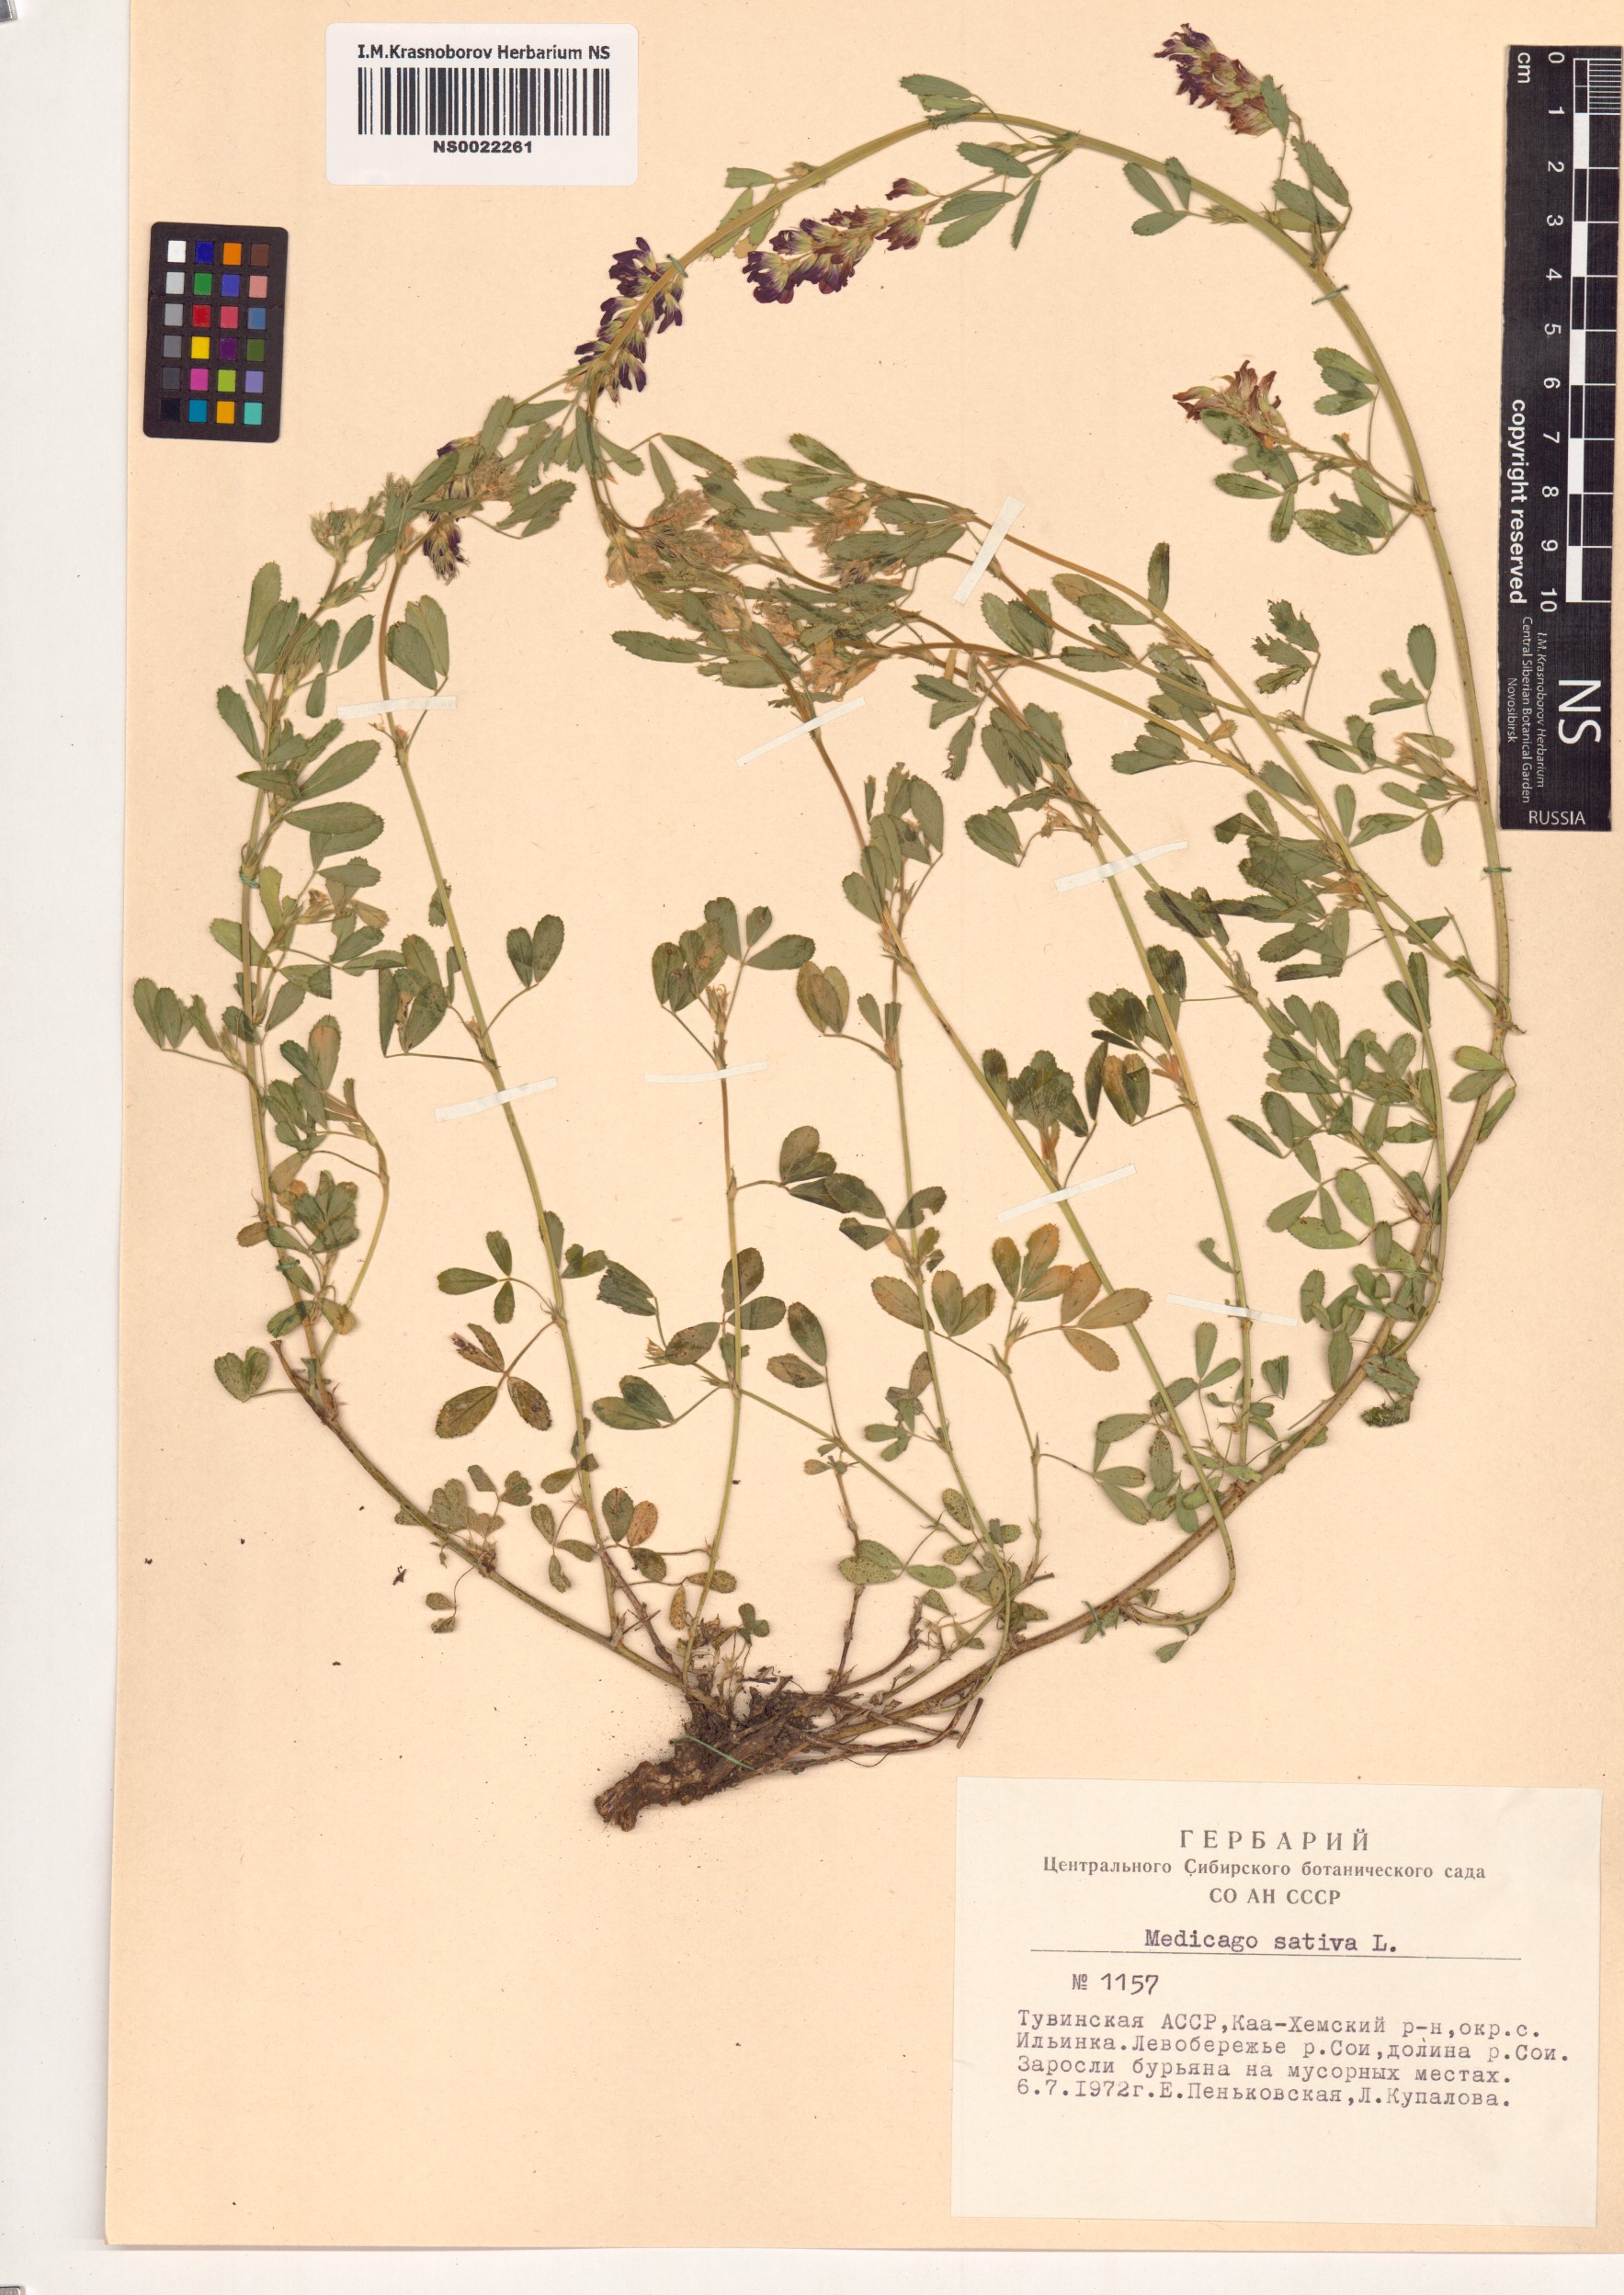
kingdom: Plantae
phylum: Tracheophyta
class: Magnoliopsida
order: Fabales
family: Fabaceae
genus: Medicago
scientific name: Medicago sativa
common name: Alfalfa
